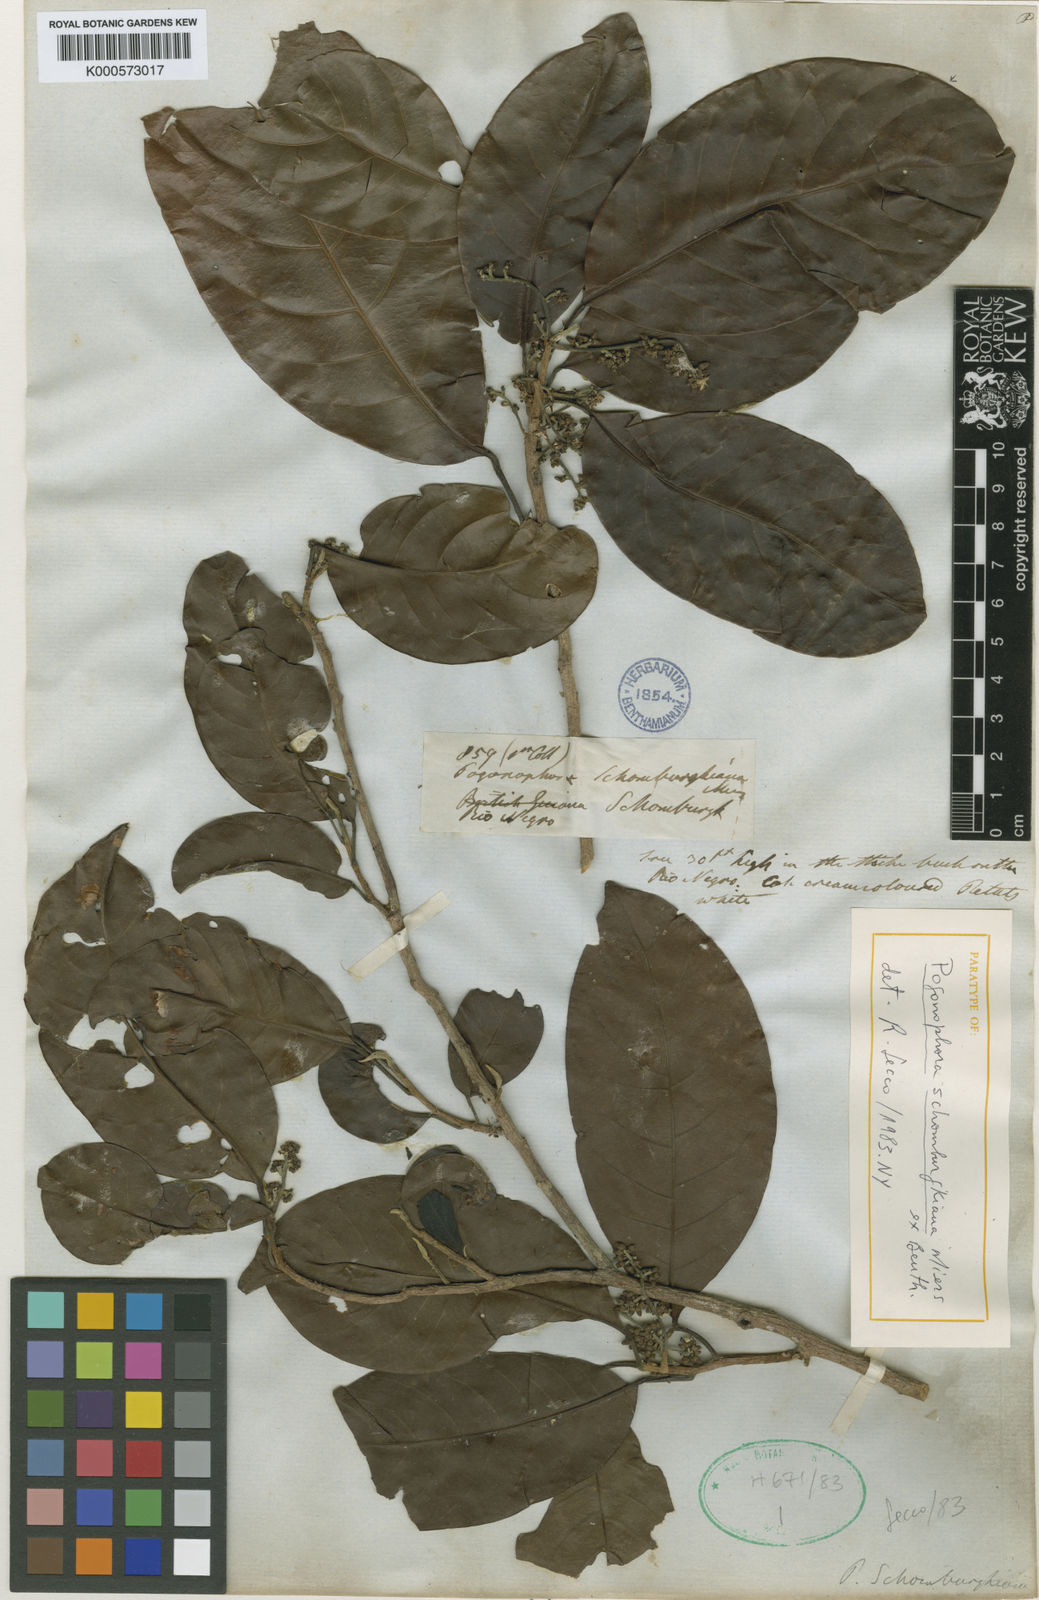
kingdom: Plantae
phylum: Tracheophyta
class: Magnoliopsida
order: Malpighiales
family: Peraceae
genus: Pogonophora
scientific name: Pogonophora schomburgkiana
